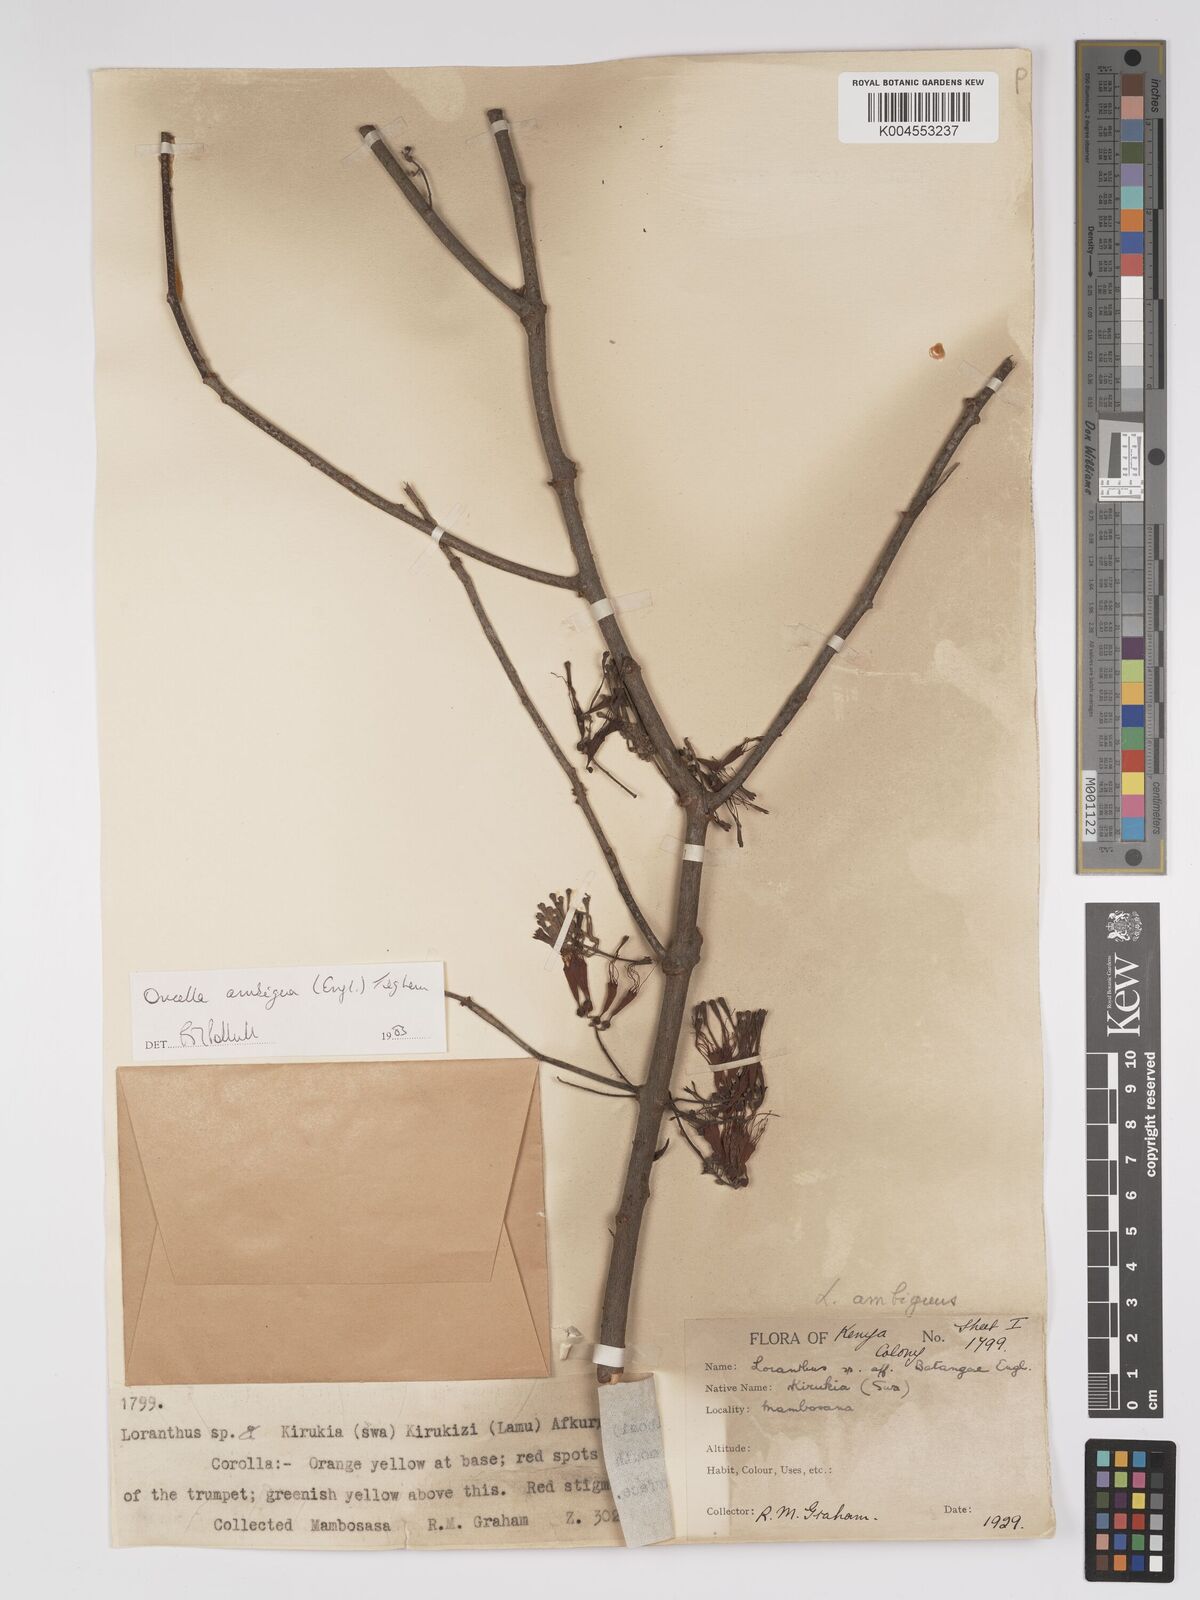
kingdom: Plantae
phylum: Tracheophyta
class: Magnoliopsida
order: Santalales
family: Loranthaceae
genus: Oncella
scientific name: Oncella ambigua
